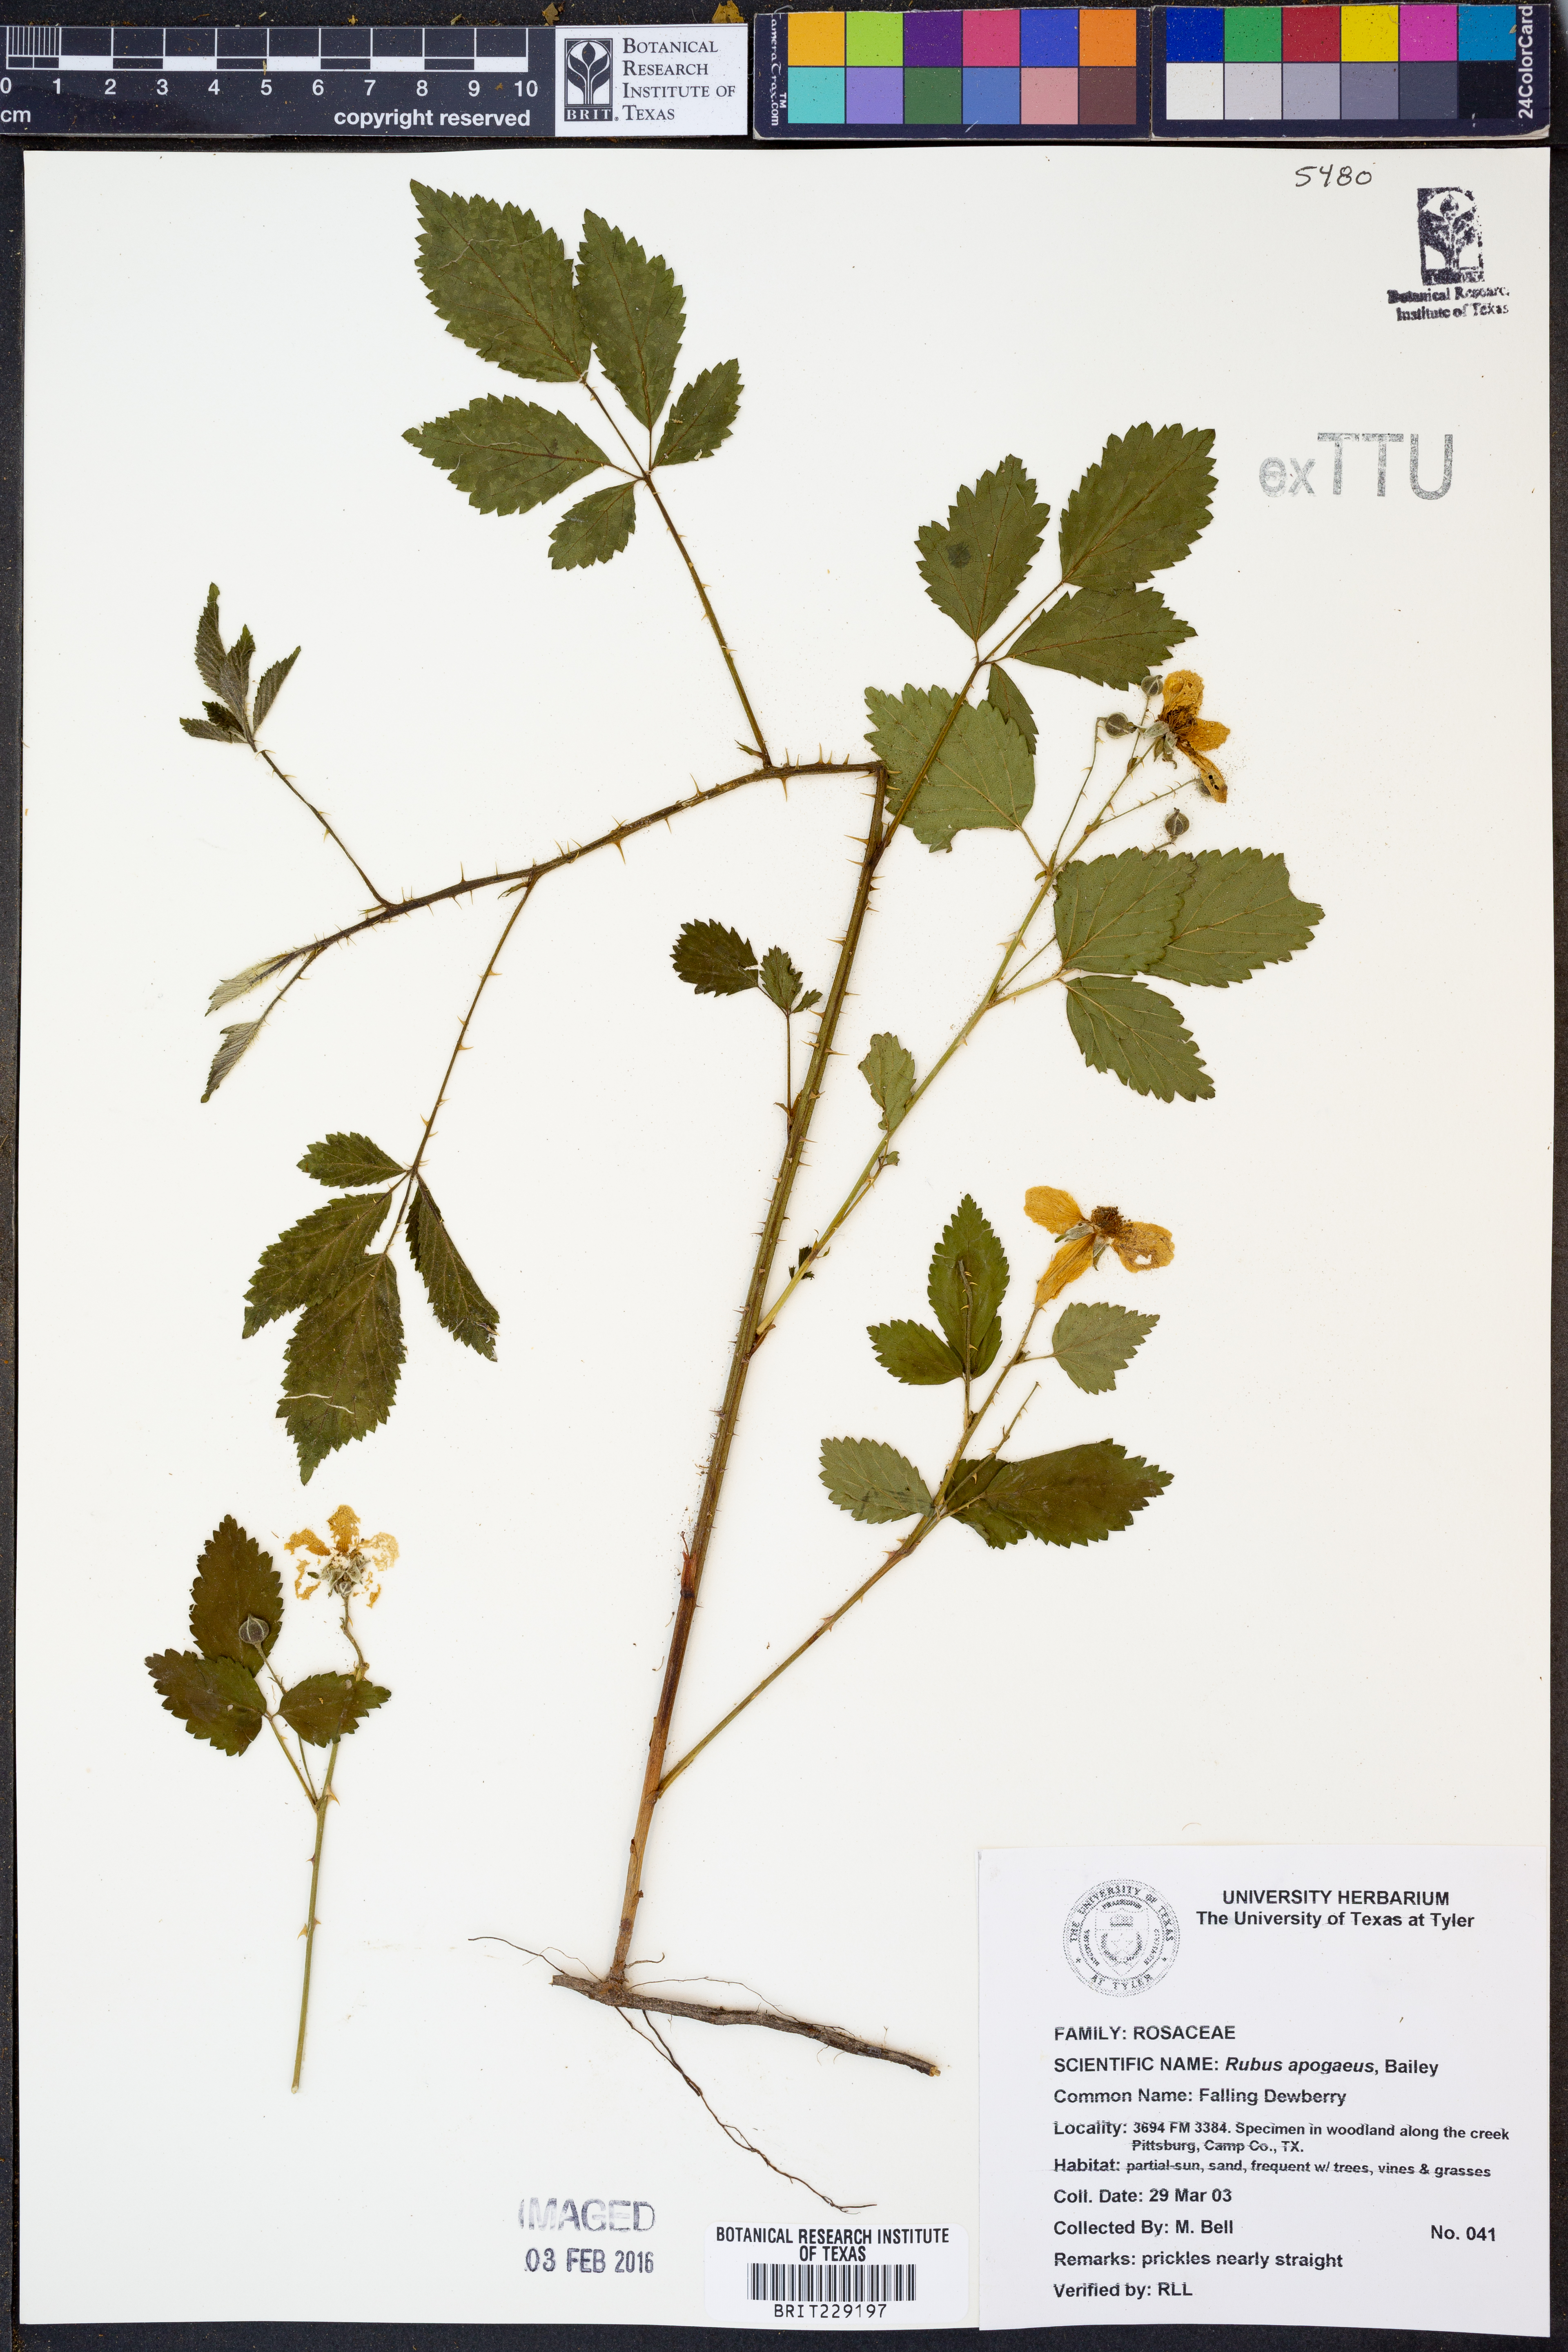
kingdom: Plantae
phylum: Tracheophyta
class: Magnoliopsida
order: Rosales
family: Rosaceae
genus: Rubus
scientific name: Rubus apogaeus
